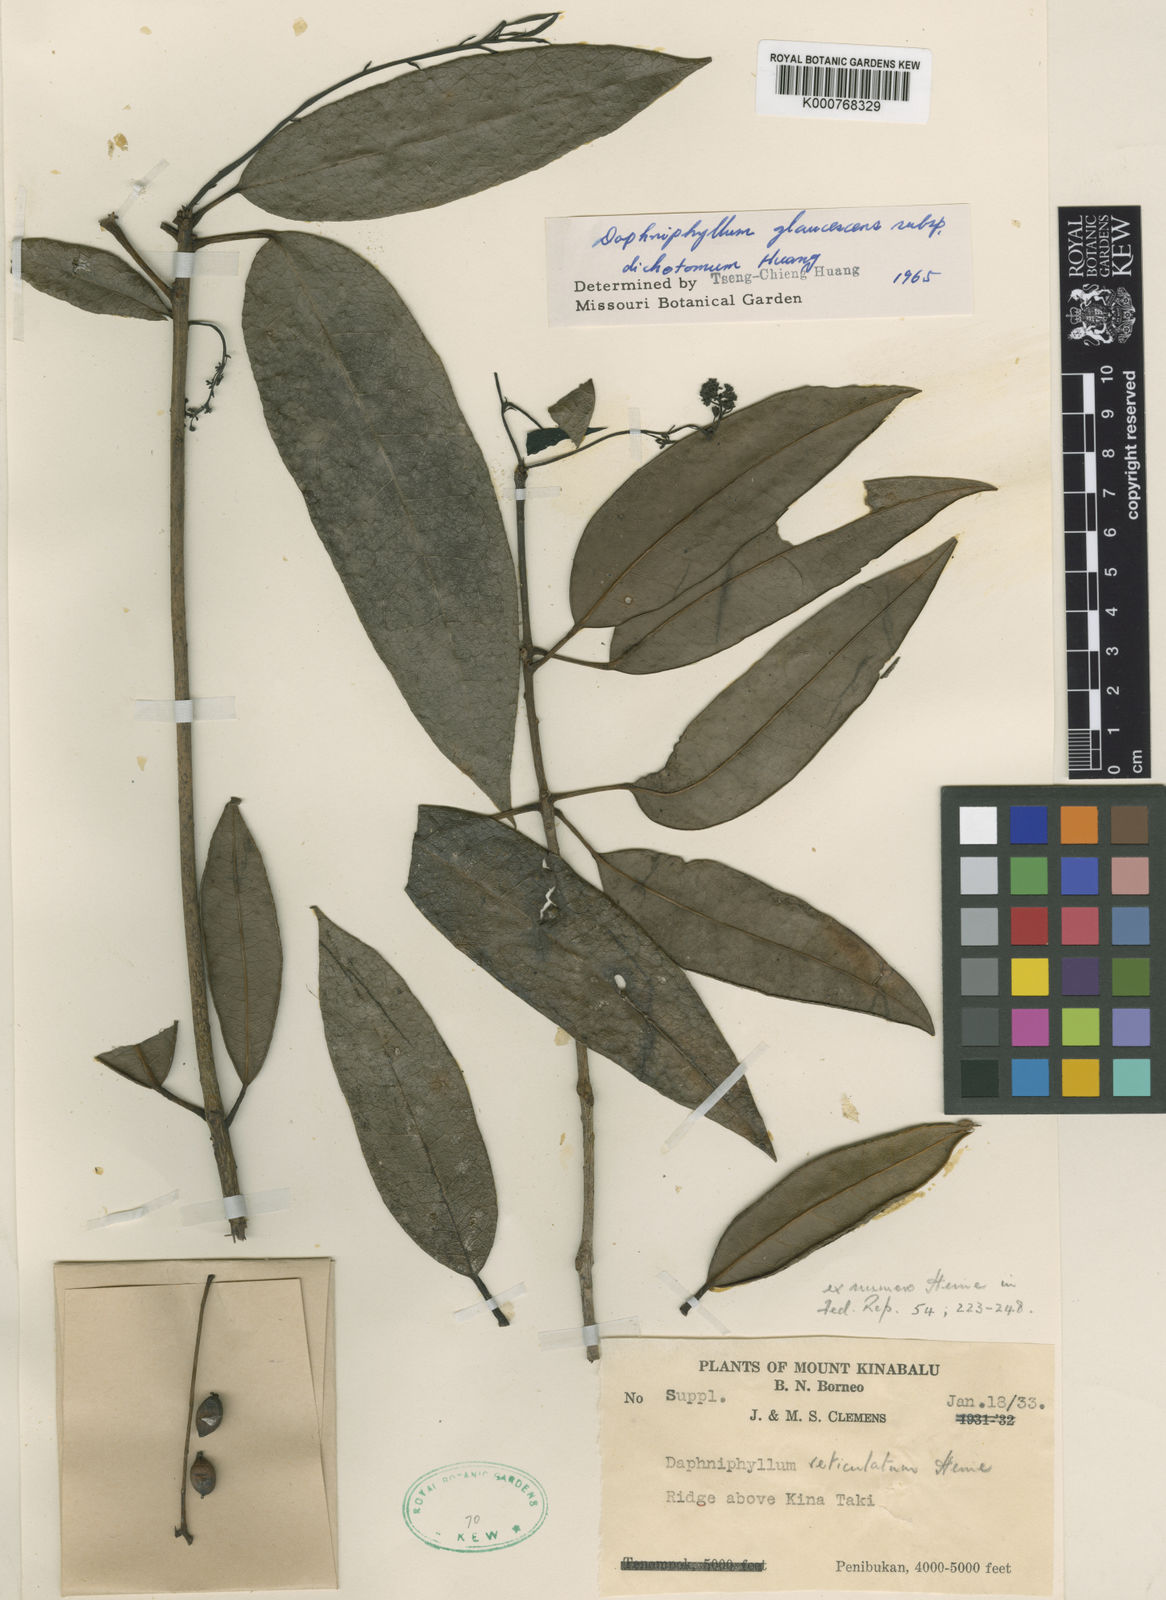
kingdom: Plantae
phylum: Tracheophyta
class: Magnoliopsida
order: Saxifragales
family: Daphniphyllaceae
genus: Daphniphyllum
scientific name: Daphniphyllum glaucescens
